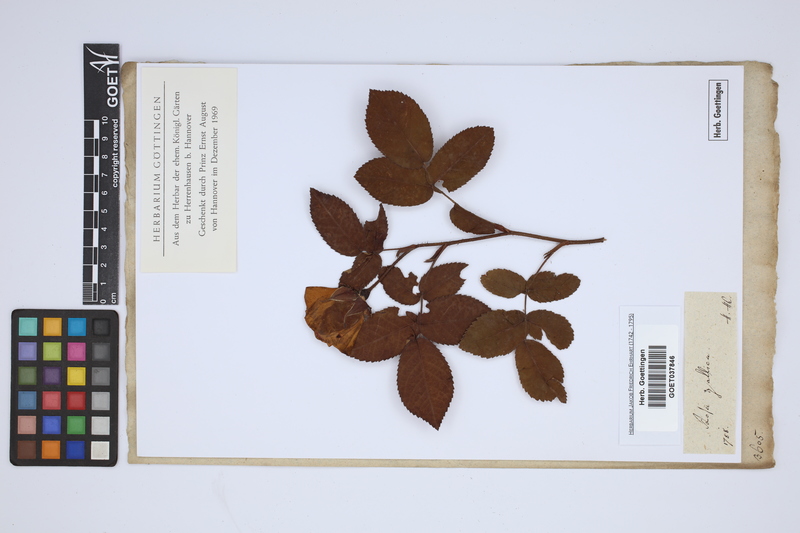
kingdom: Plantae
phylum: Tracheophyta
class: Magnoliopsida
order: Rosales
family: Rosaceae
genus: Rosa
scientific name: Rosa gallica
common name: French rose
